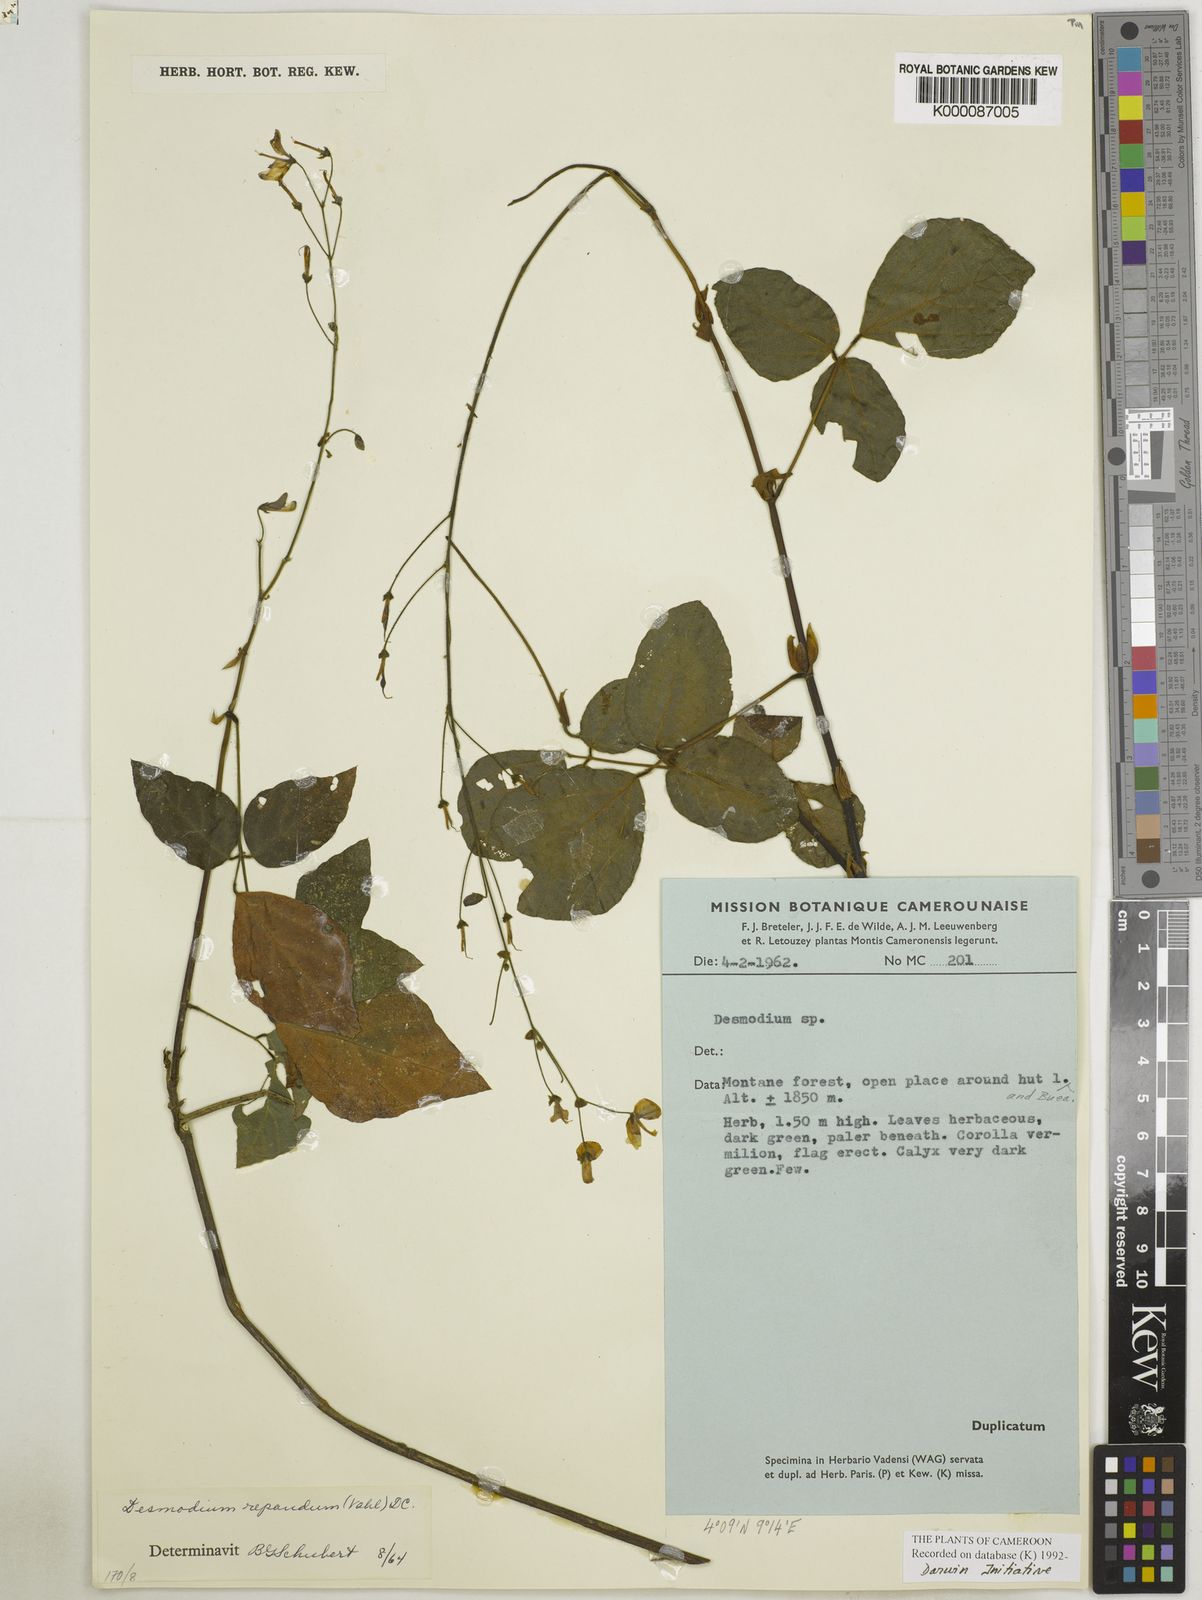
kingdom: Plantae
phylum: Tracheophyta
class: Magnoliopsida
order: Fabales
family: Fabaceae
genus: Desmodium
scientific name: Desmodium
